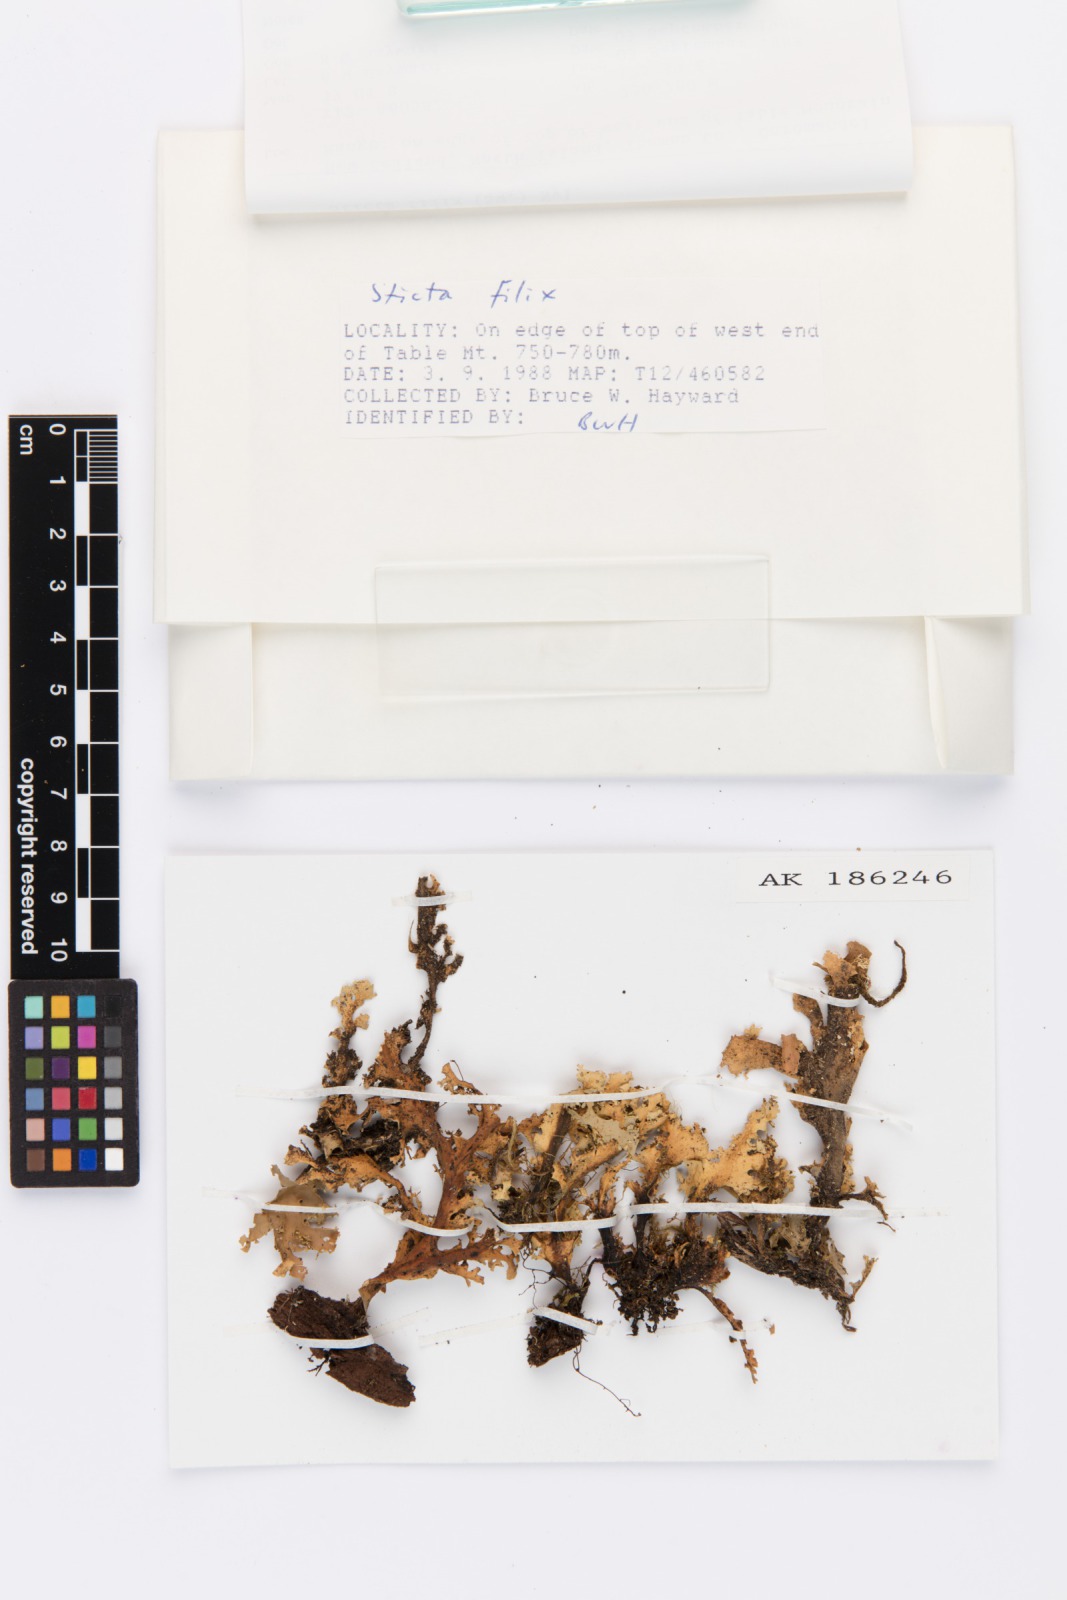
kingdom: Fungi
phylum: Ascomycota
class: Lecanoromycetes
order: Peltigerales
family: Lobariaceae
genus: Sticta
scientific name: Sticta filix
